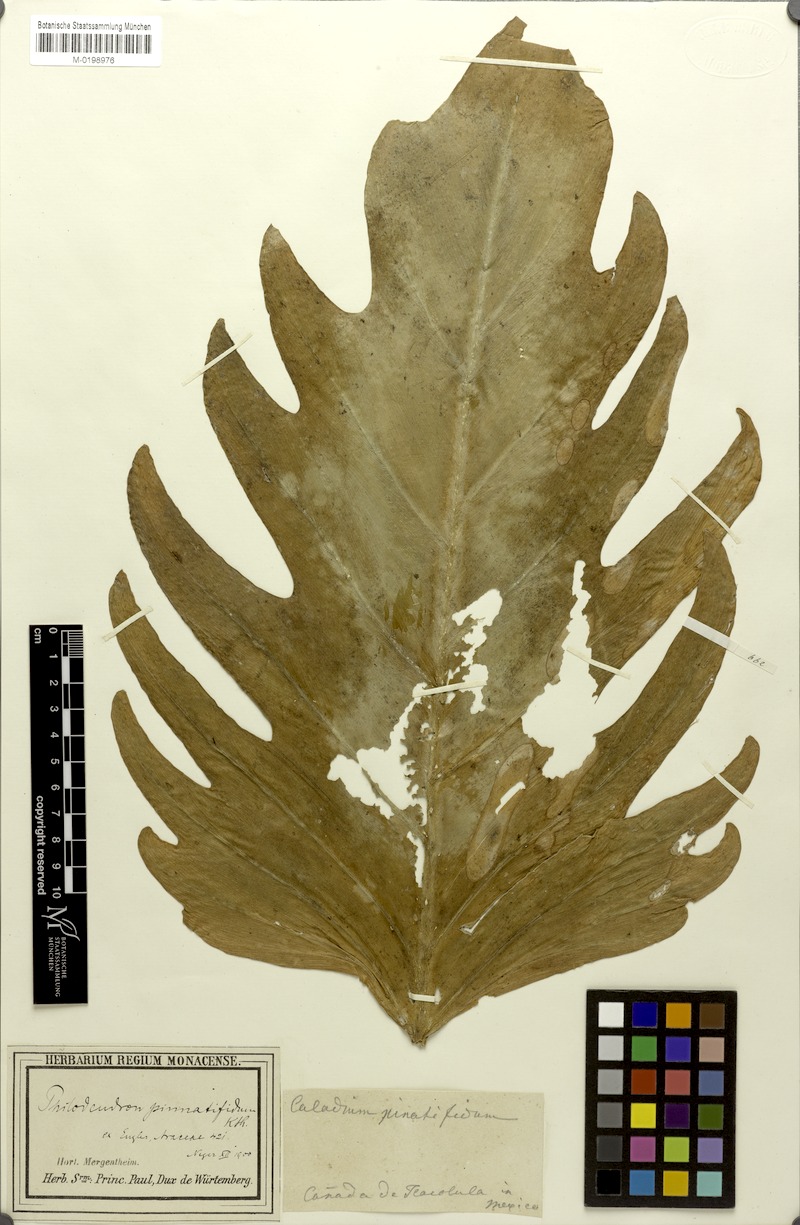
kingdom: Plantae
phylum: Tracheophyta
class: Liliopsida
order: Alismatales
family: Araceae
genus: Philodendron
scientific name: Philodendron radiatum
